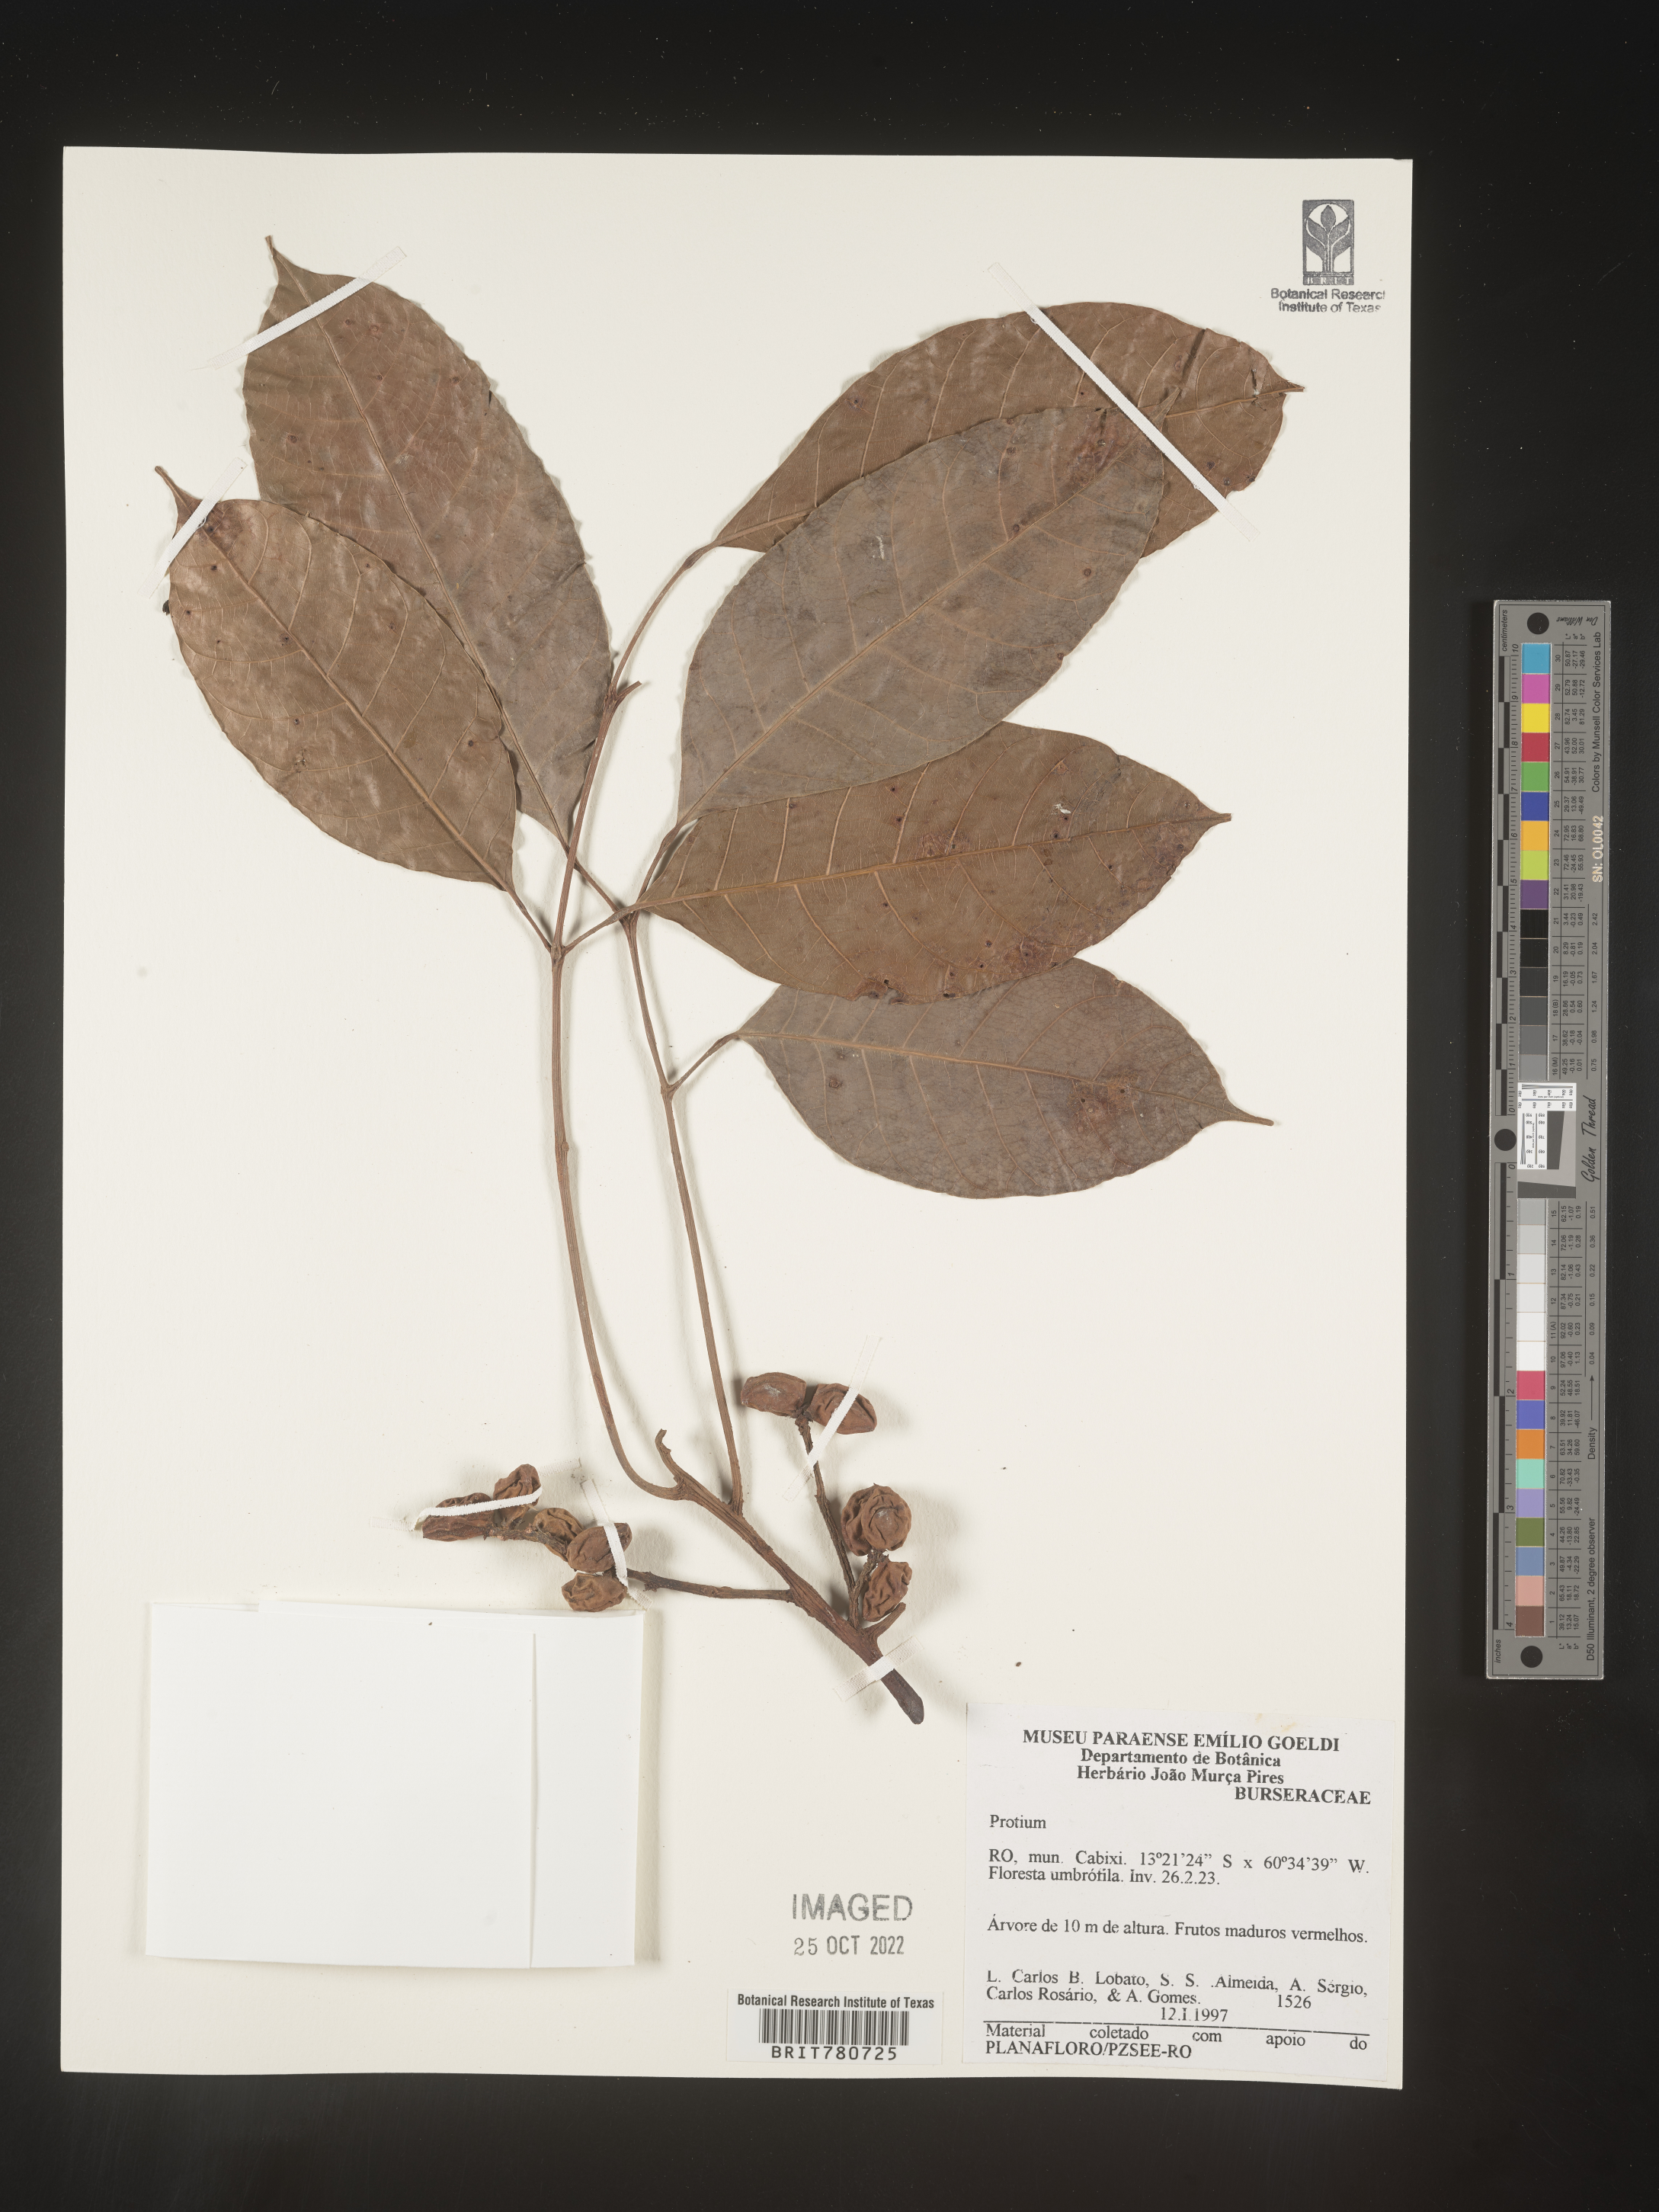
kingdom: Plantae
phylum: Tracheophyta
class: Magnoliopsida
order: Sapindales
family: Burseraceae
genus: Protium
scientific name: Protium
